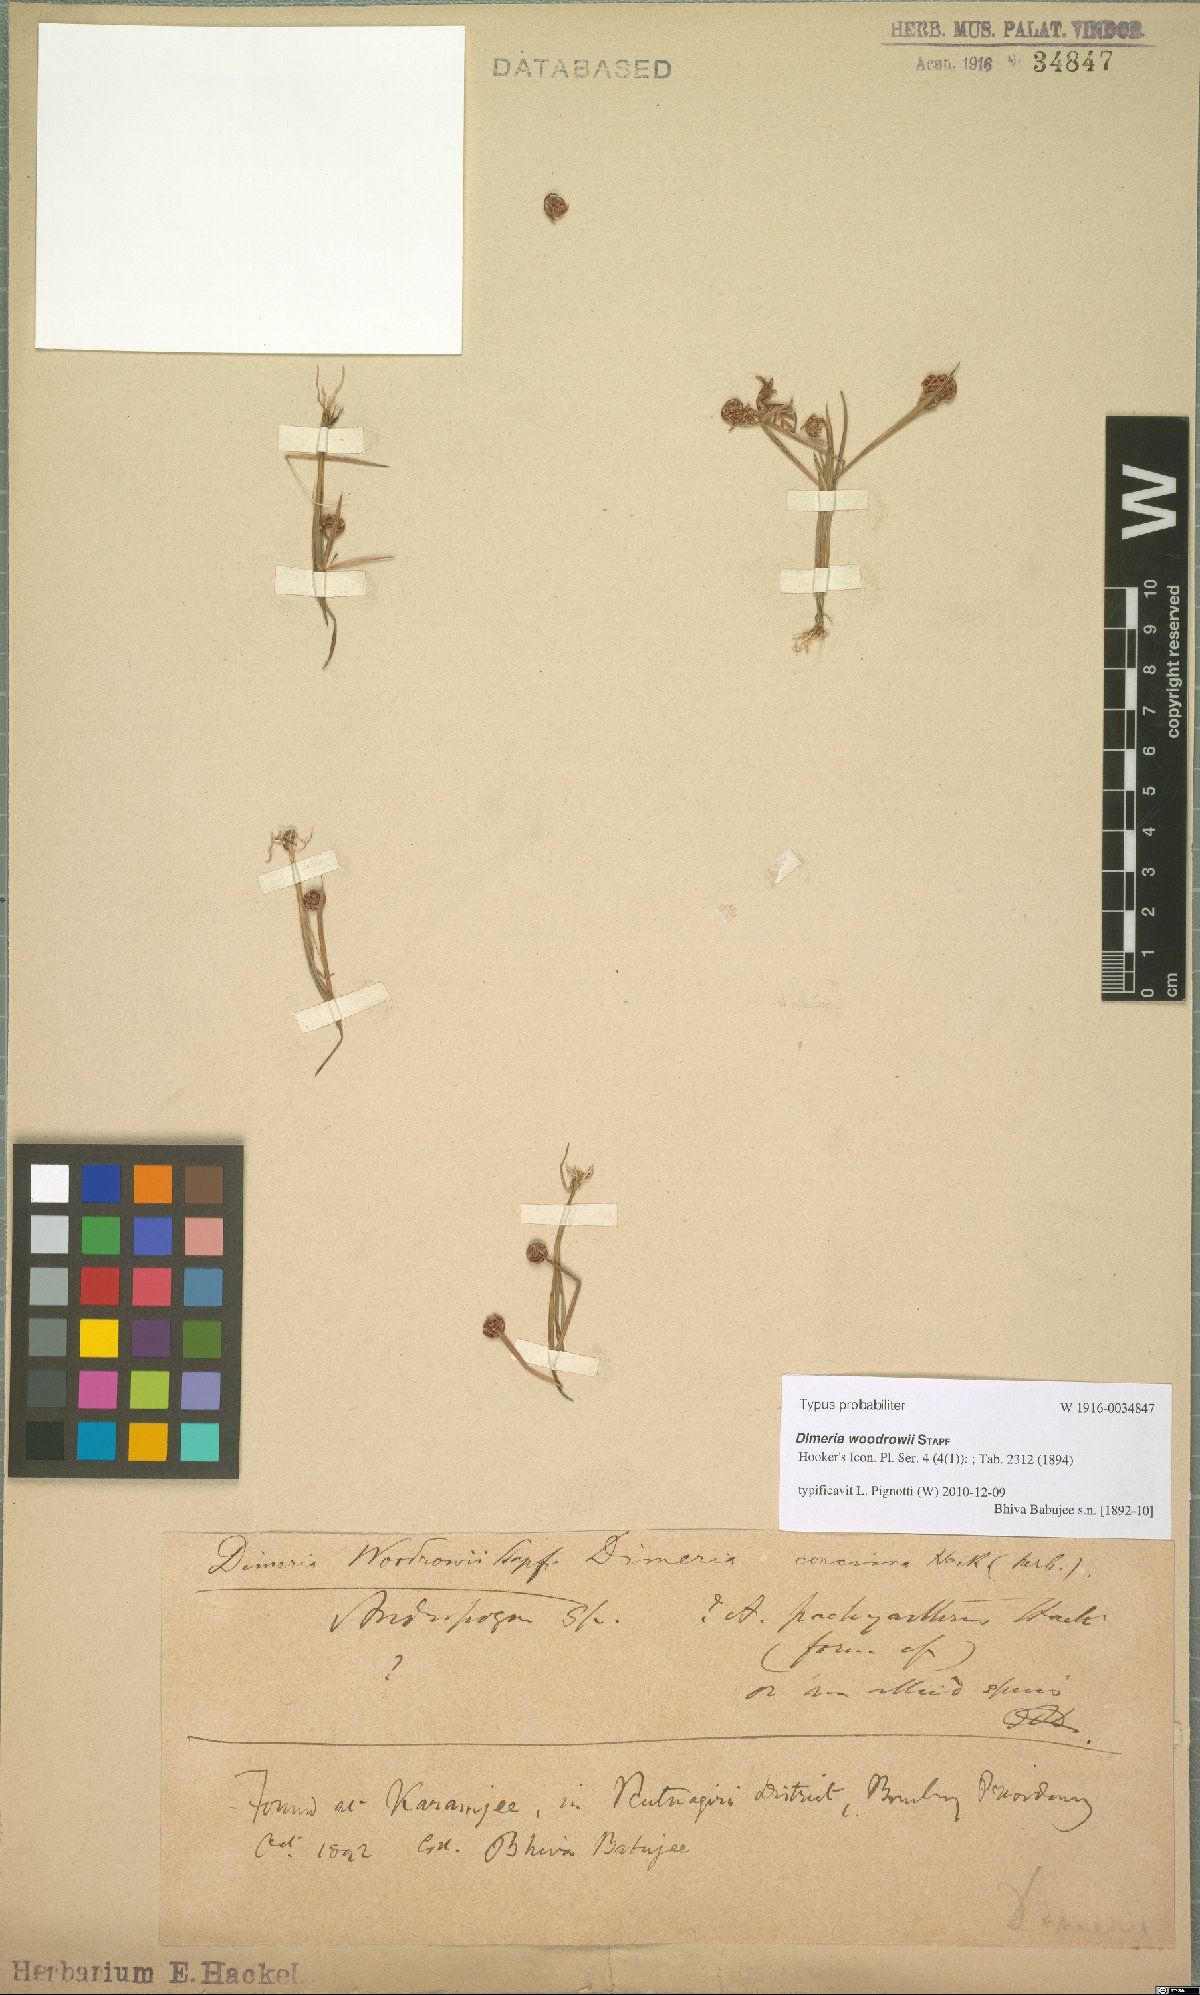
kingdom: Plantae
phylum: Tracheophyta
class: Liliopsida
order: Poales
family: Poaceae
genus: Dimeria
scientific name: Dimeria woodrowii
